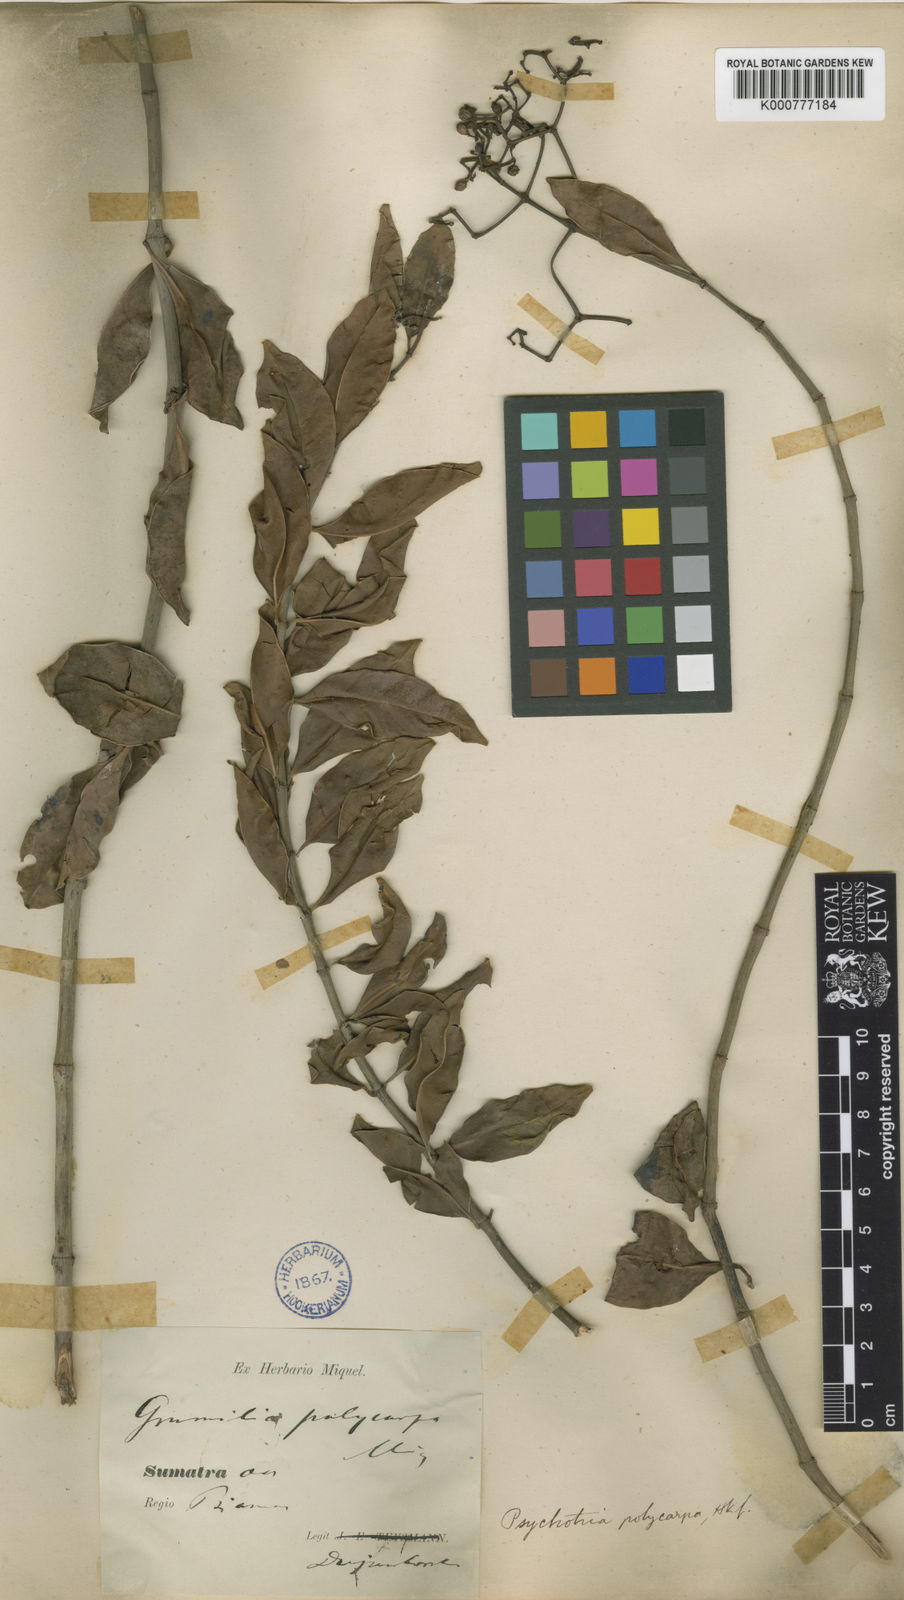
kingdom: Plantae
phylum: Tracheophyta
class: Magnoliopsida
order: Gentianales
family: Rubiaceae
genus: Psychotria
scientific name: Psychotria sarmentosa
